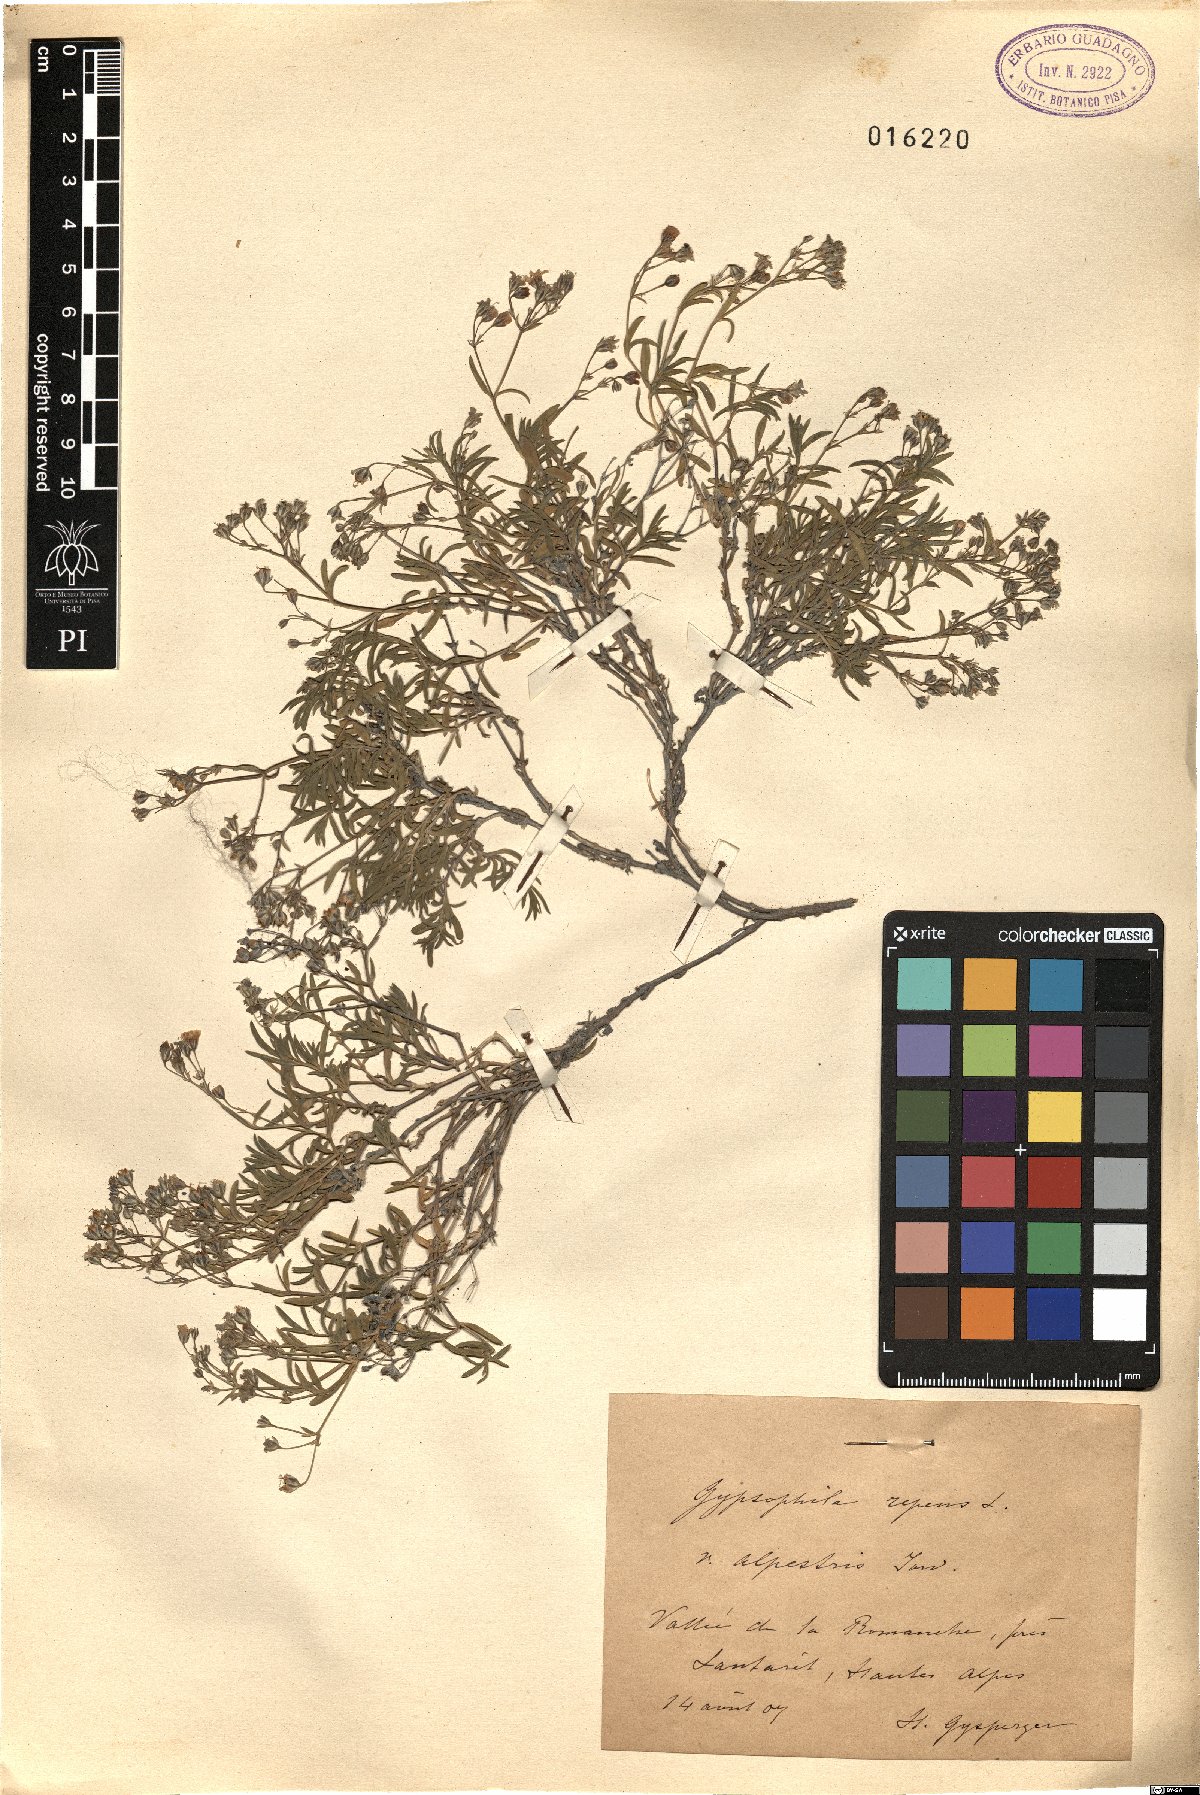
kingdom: Plantae
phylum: Tracheophyta
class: Magnoliopsida
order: Caryophyllales
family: Caryophyllaceae
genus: Gypsophila
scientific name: Gypsophila repens
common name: Creeping baby's-breath
